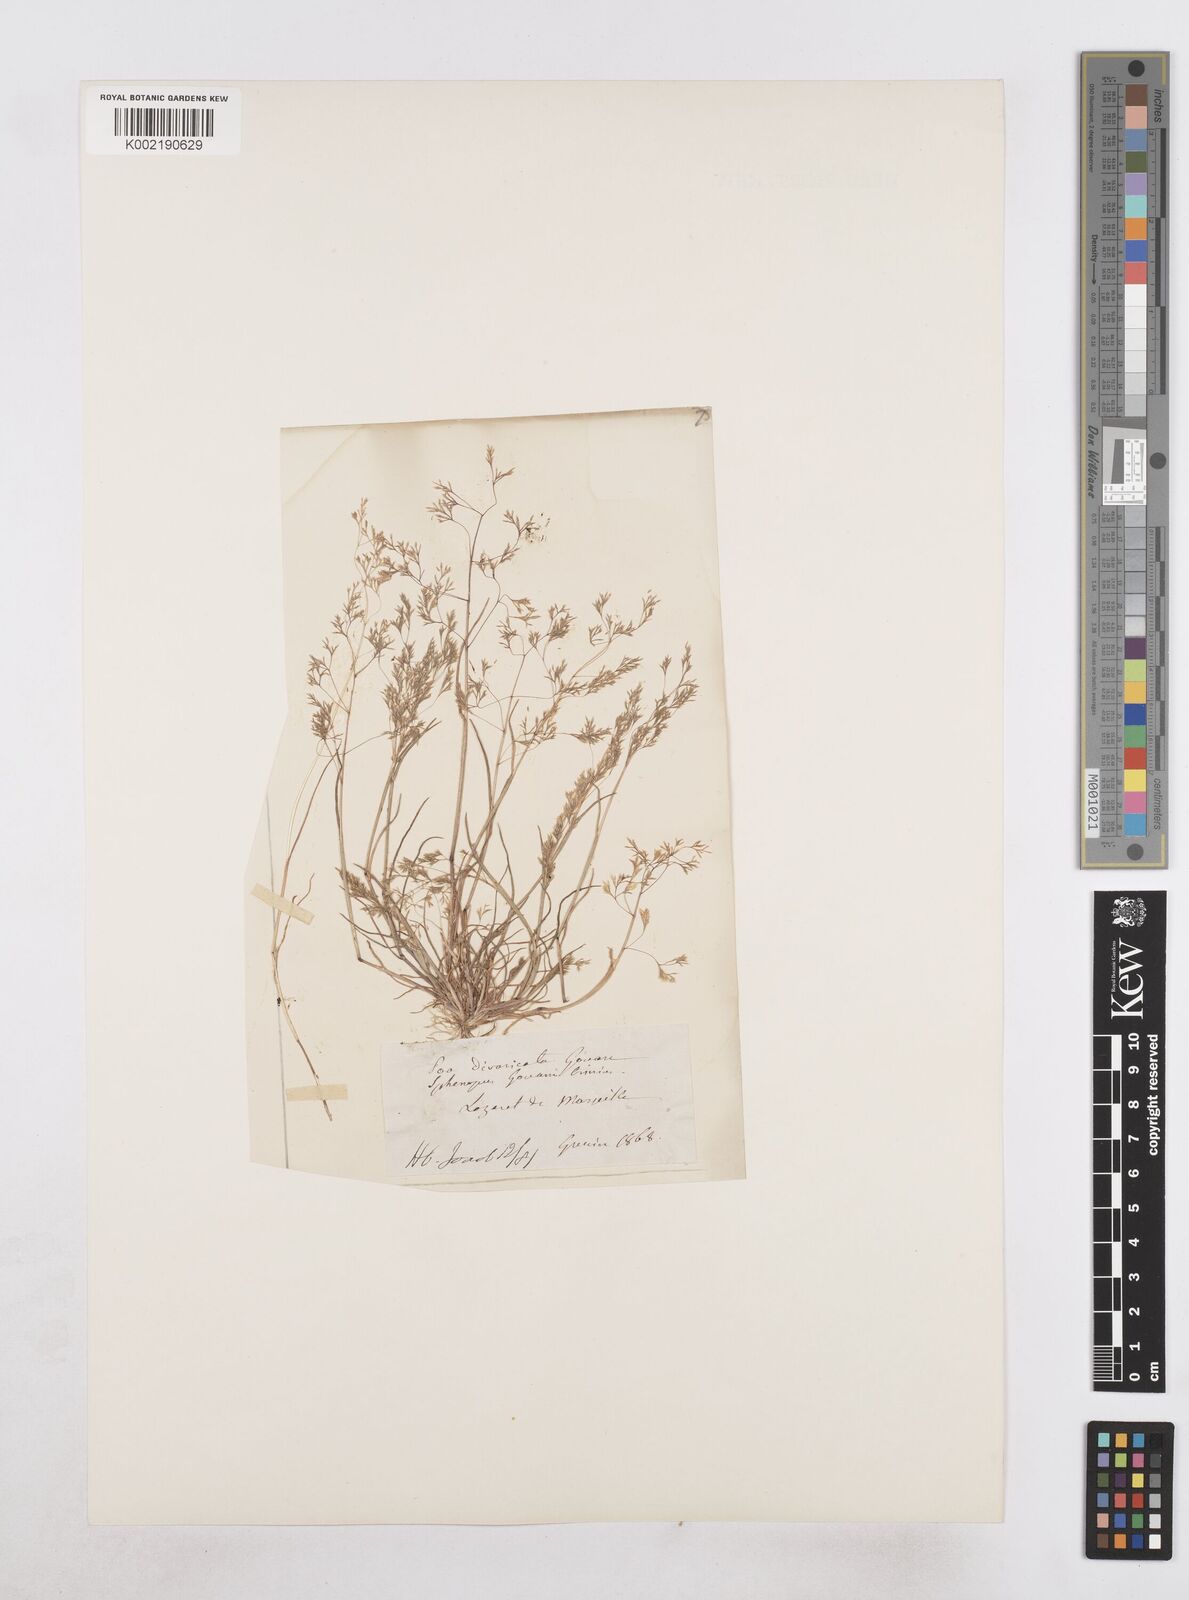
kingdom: Plantae
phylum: Tracheophyta
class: Liliopsida
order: Poales
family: Poaceae
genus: Sphenopus
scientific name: Sphenopus divaricatus
